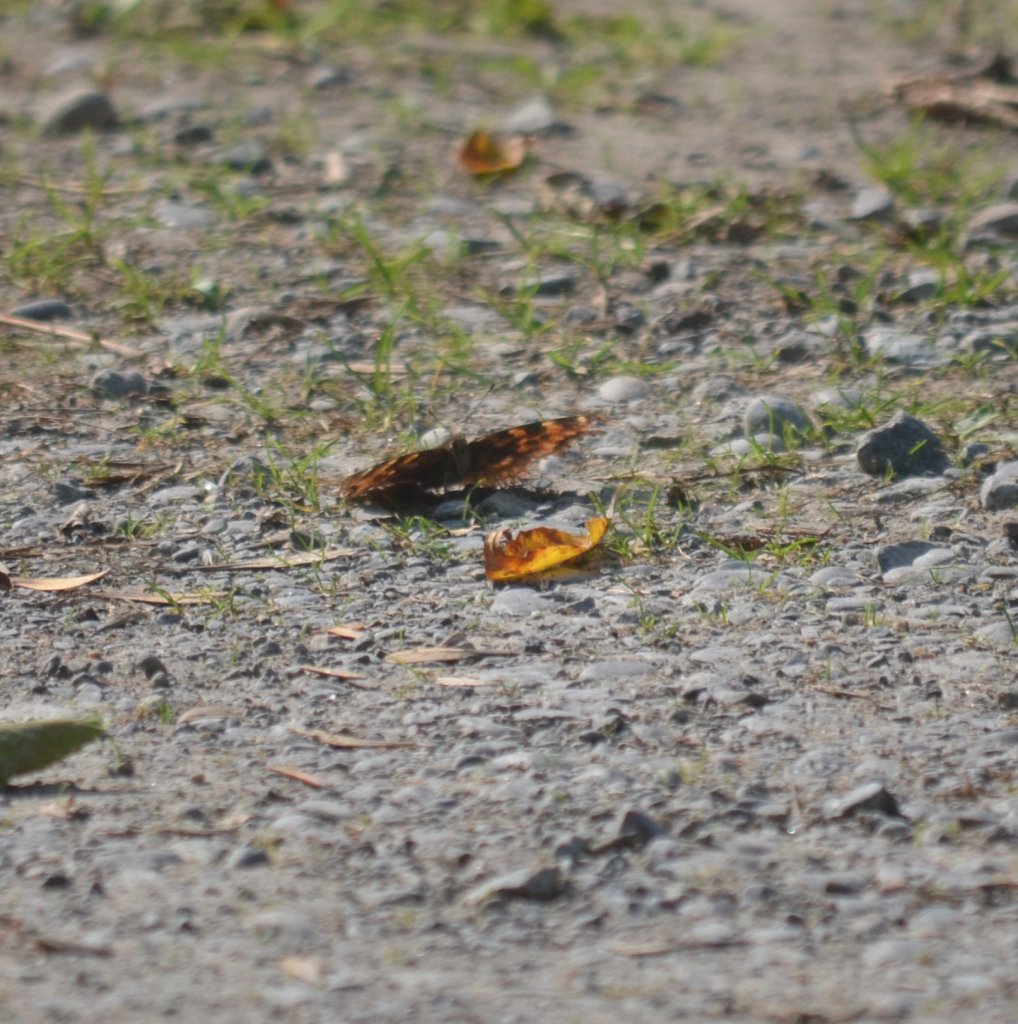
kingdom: Animalia
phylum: Arthropoda
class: Insecta
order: Lepidoptera
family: Nymphalidae
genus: Polygonia
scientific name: Polygonia vaualbum
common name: Compton Tortoiseshell
